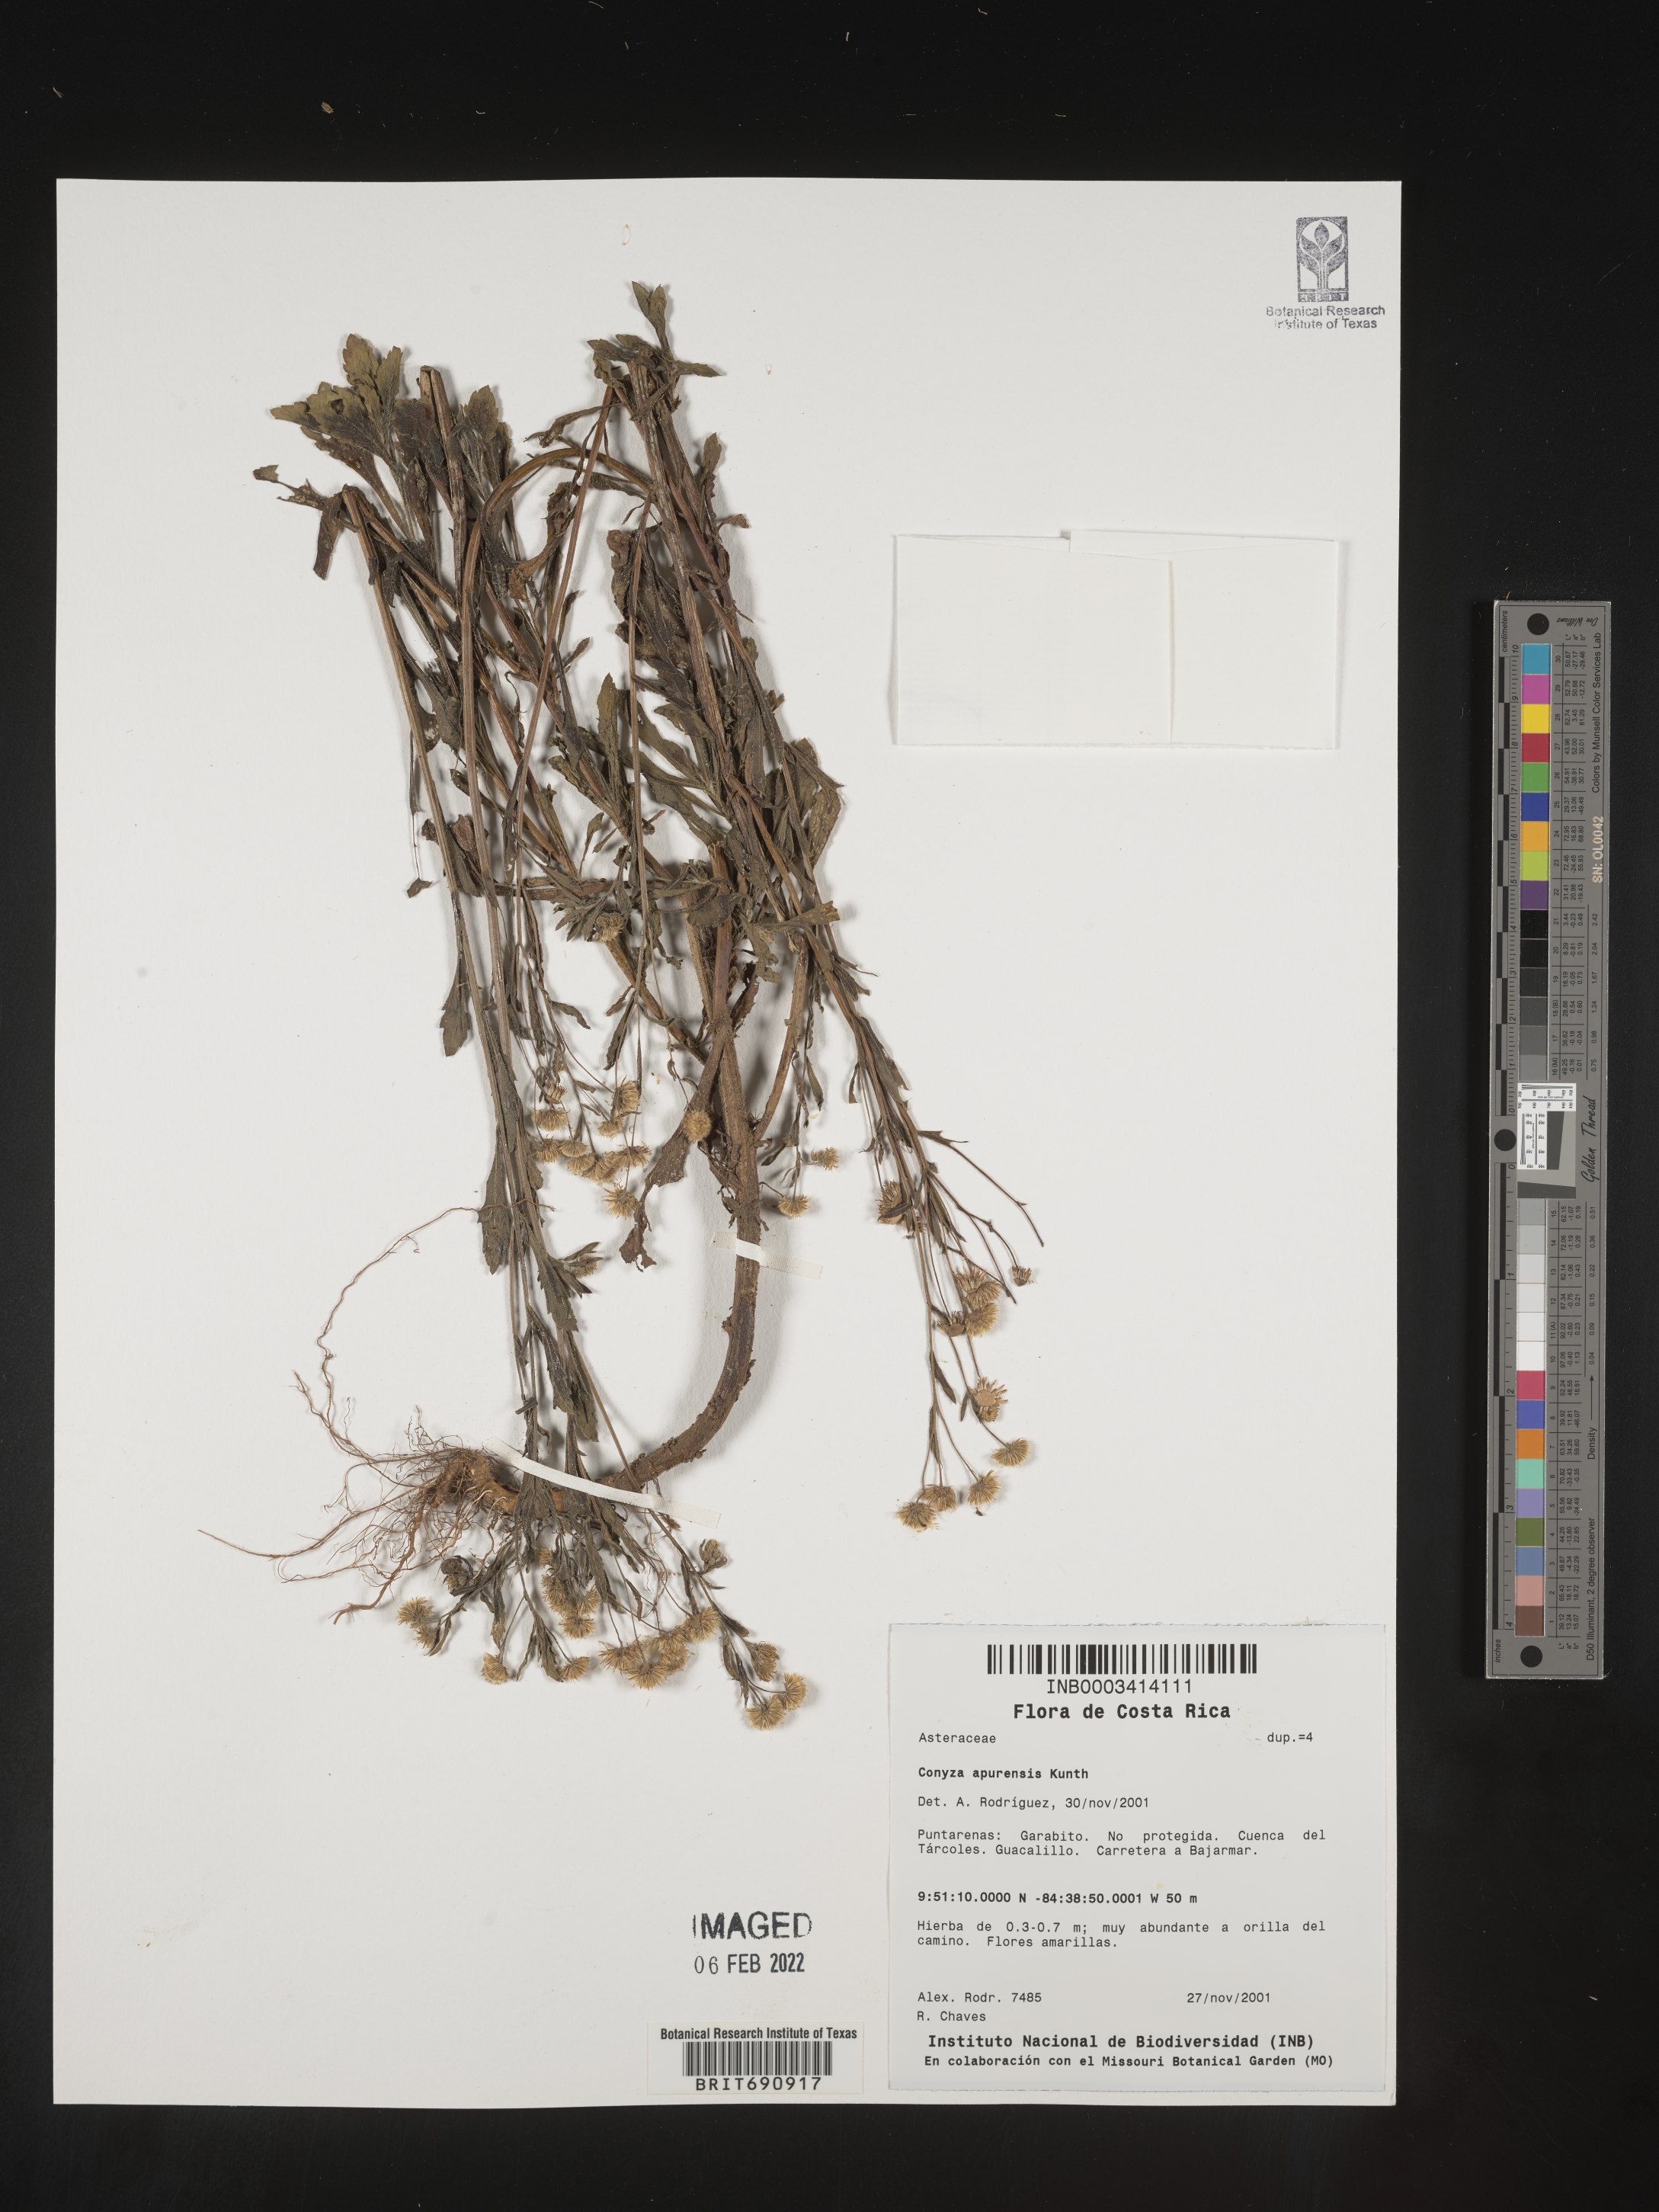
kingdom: Plantae
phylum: Tracheophyta
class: Magnoliopsida
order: Asterales
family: Asteraceae
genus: Erigeron
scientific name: Erigeron laevigatus
